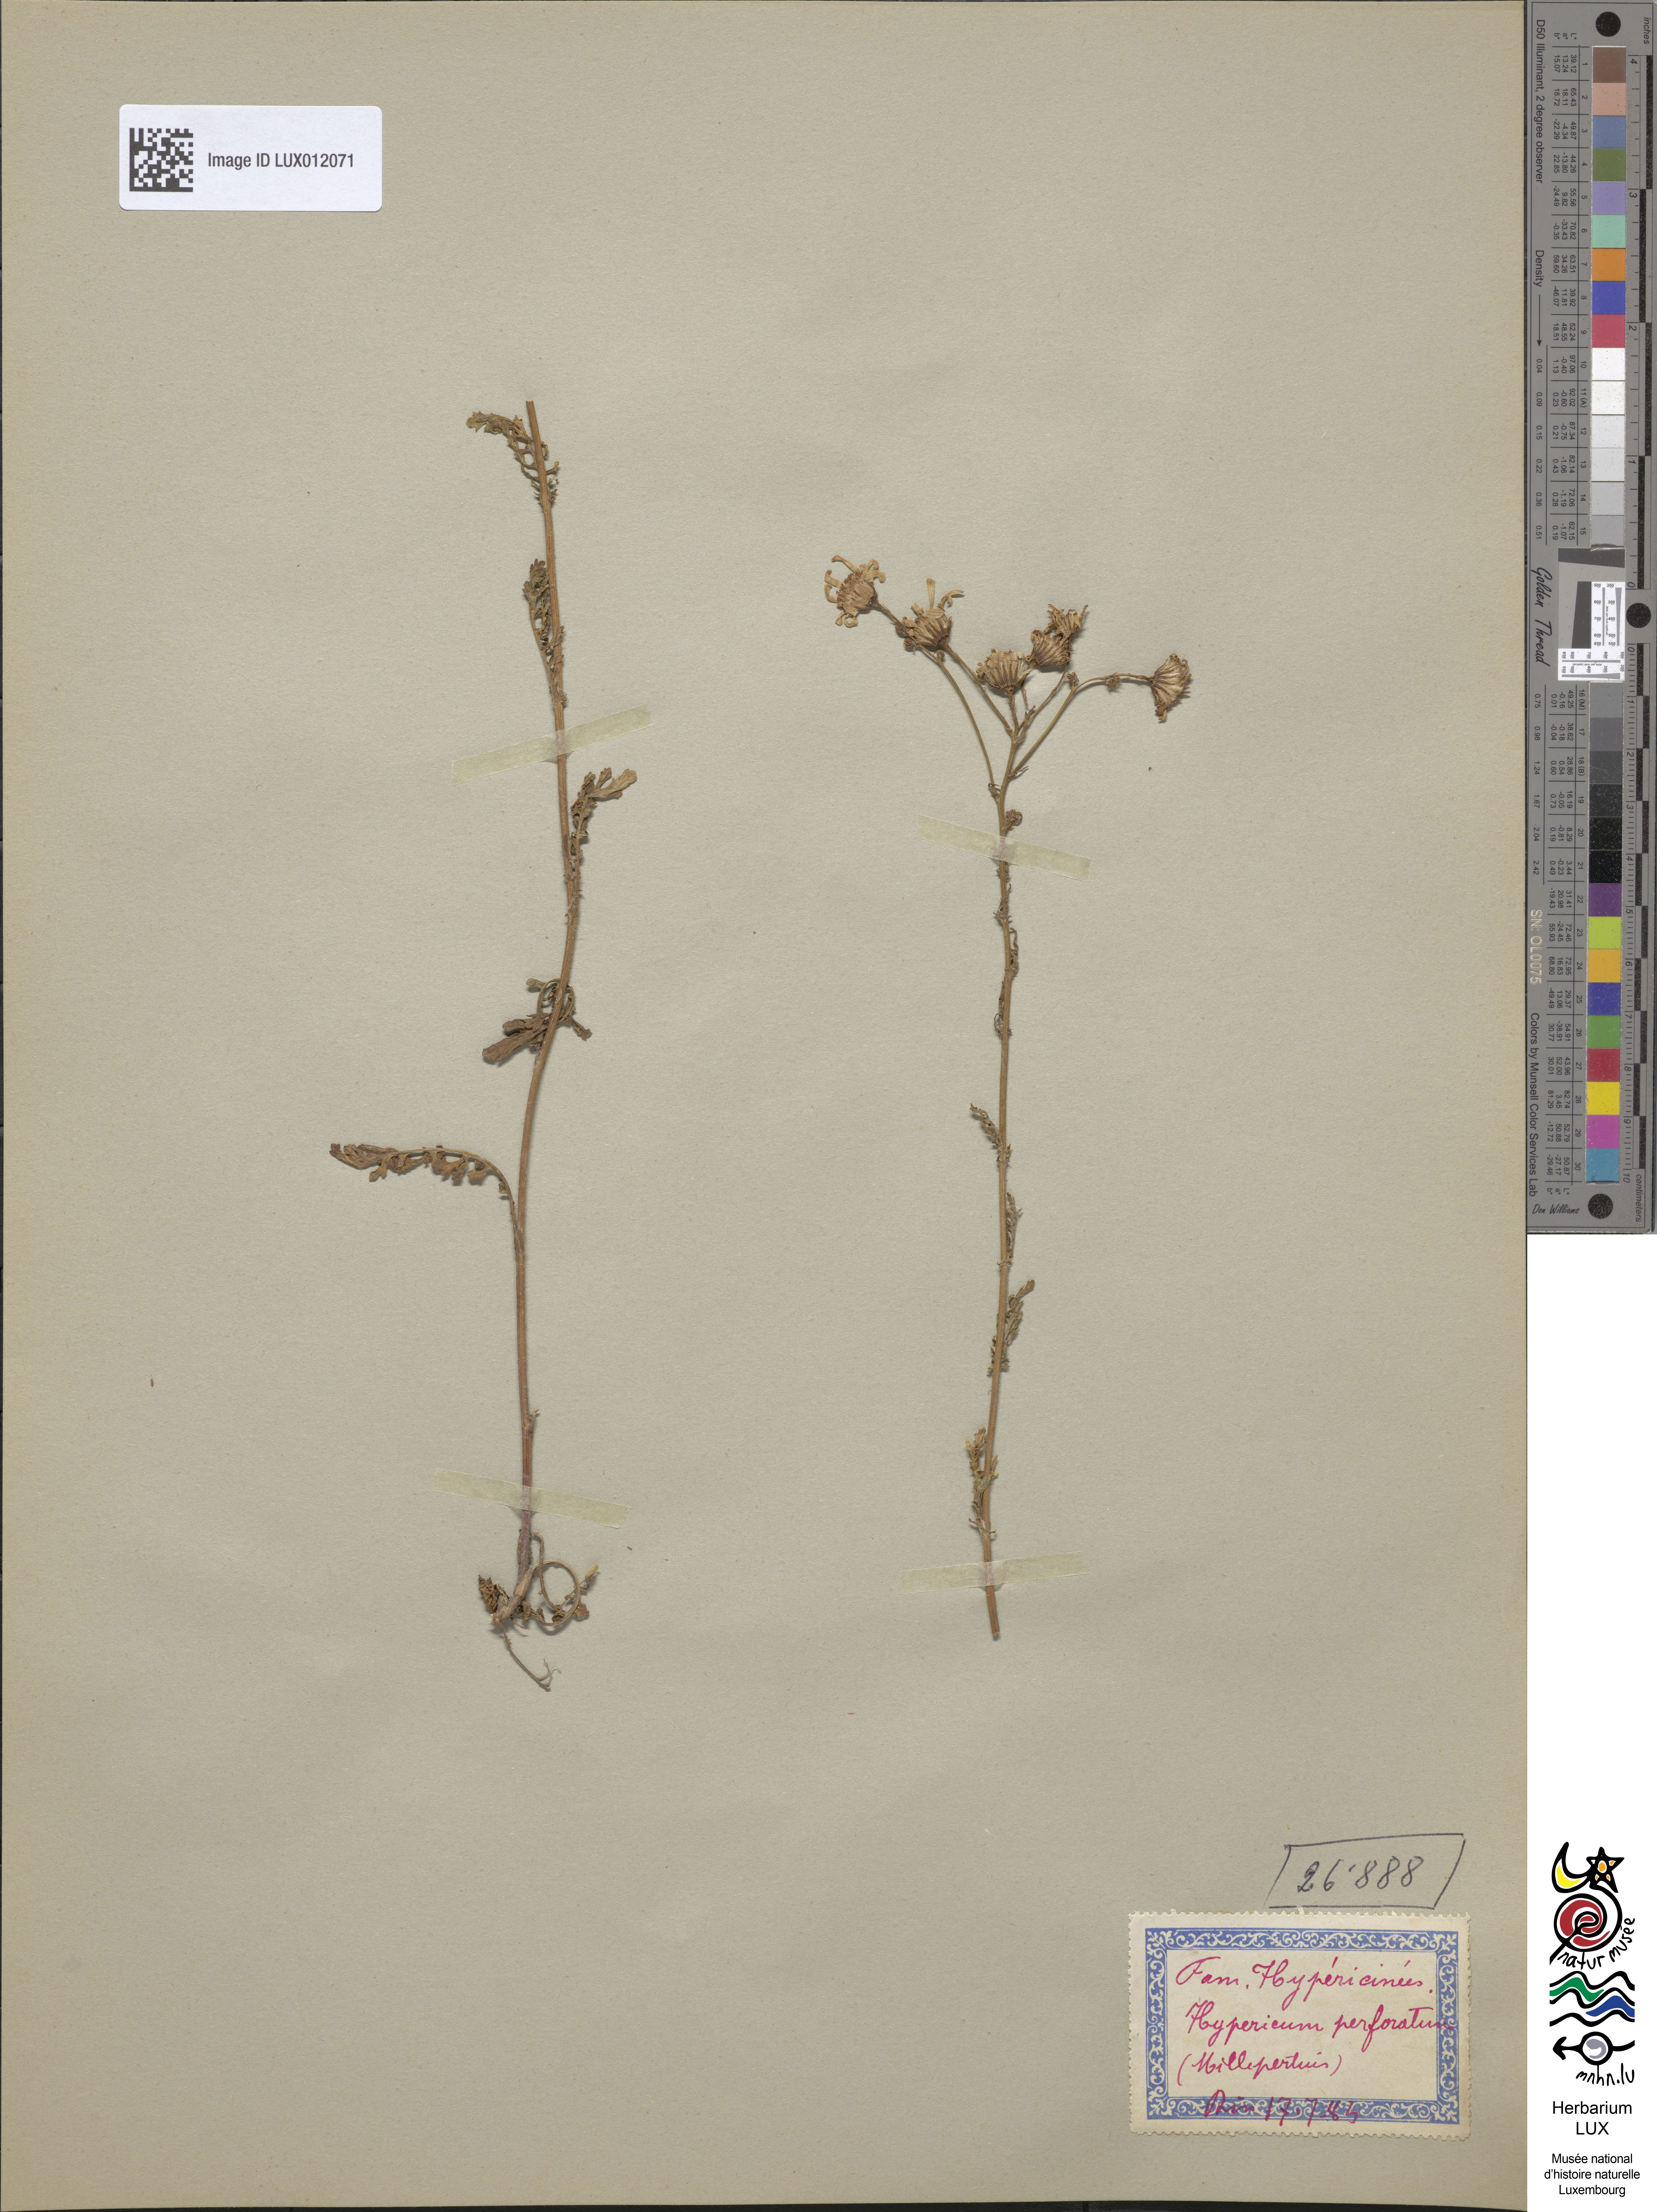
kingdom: Plantae
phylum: Tracheophyta
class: Magnoliopsida
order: Malpighiales
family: Hypericaceae
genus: Hypericum
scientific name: Hypericum perforatum
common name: Common st. johnswort
